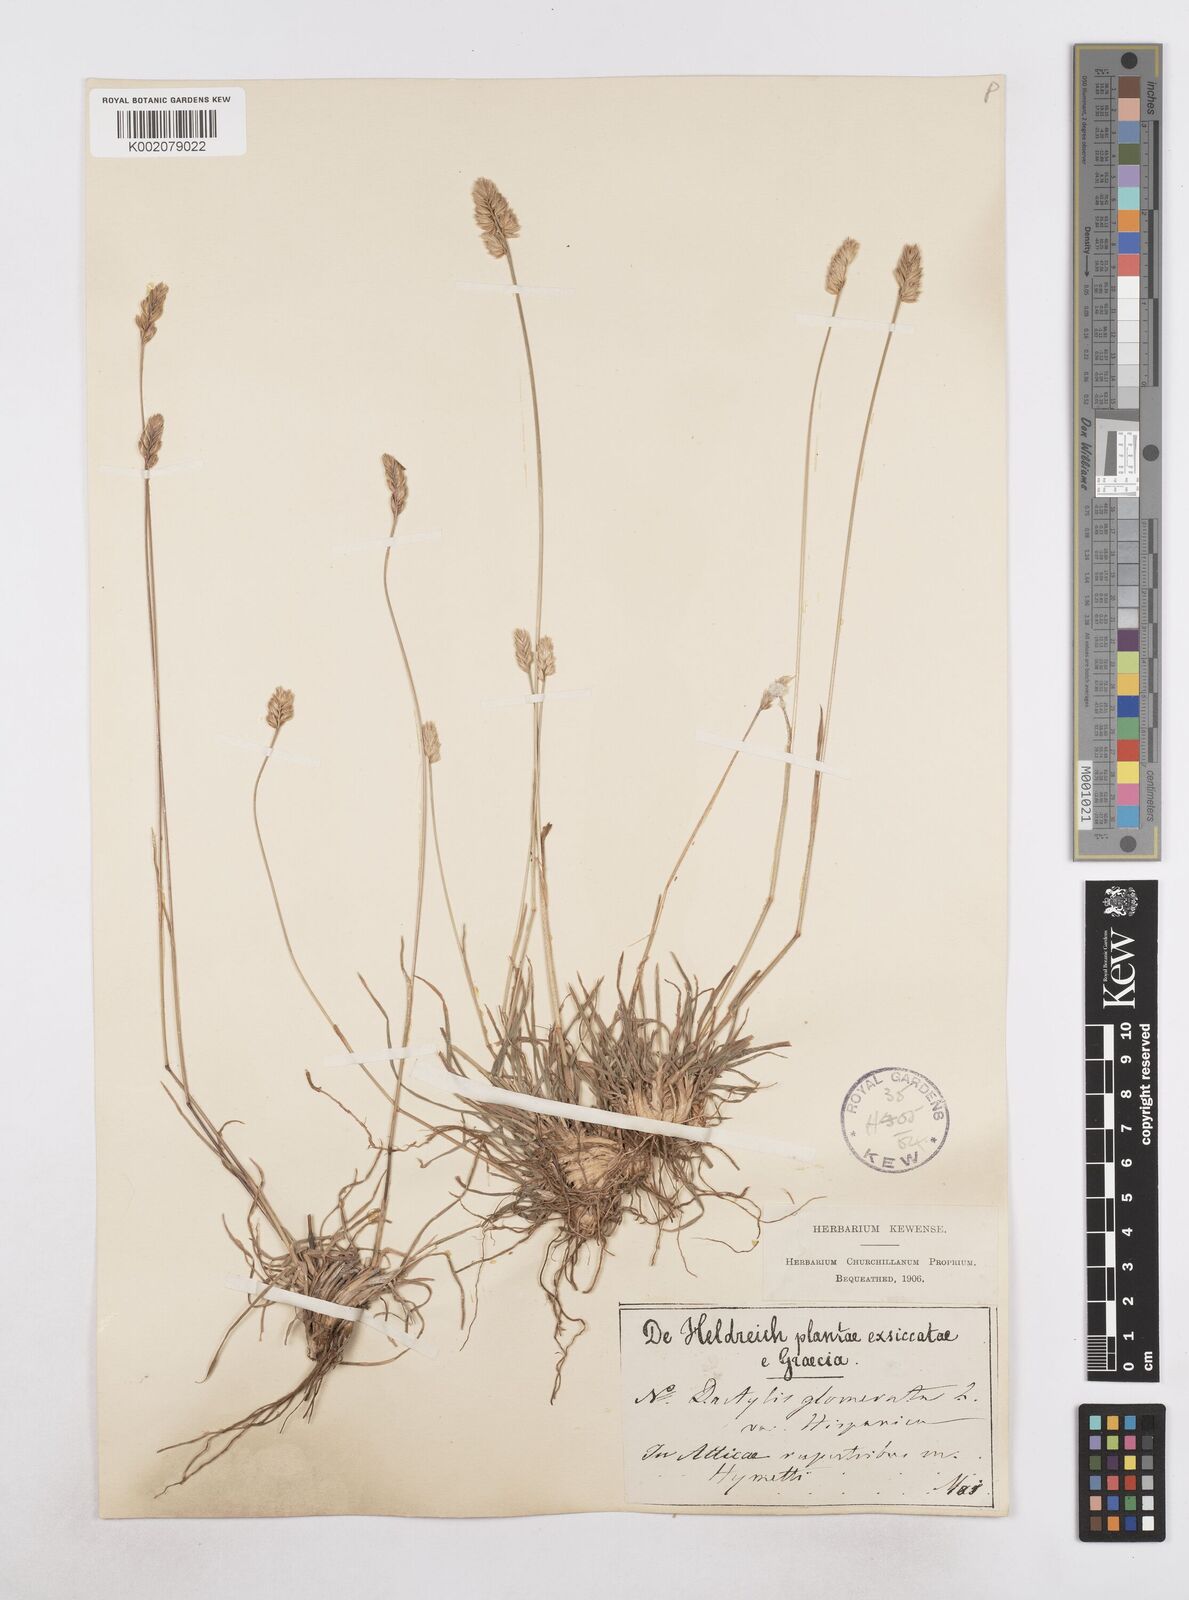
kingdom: Plantae
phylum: Tracheophyta
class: Liliopsida
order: Poales
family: Poaceae
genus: Dactylis
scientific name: Dactylis glomerata
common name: Orchardgrass
